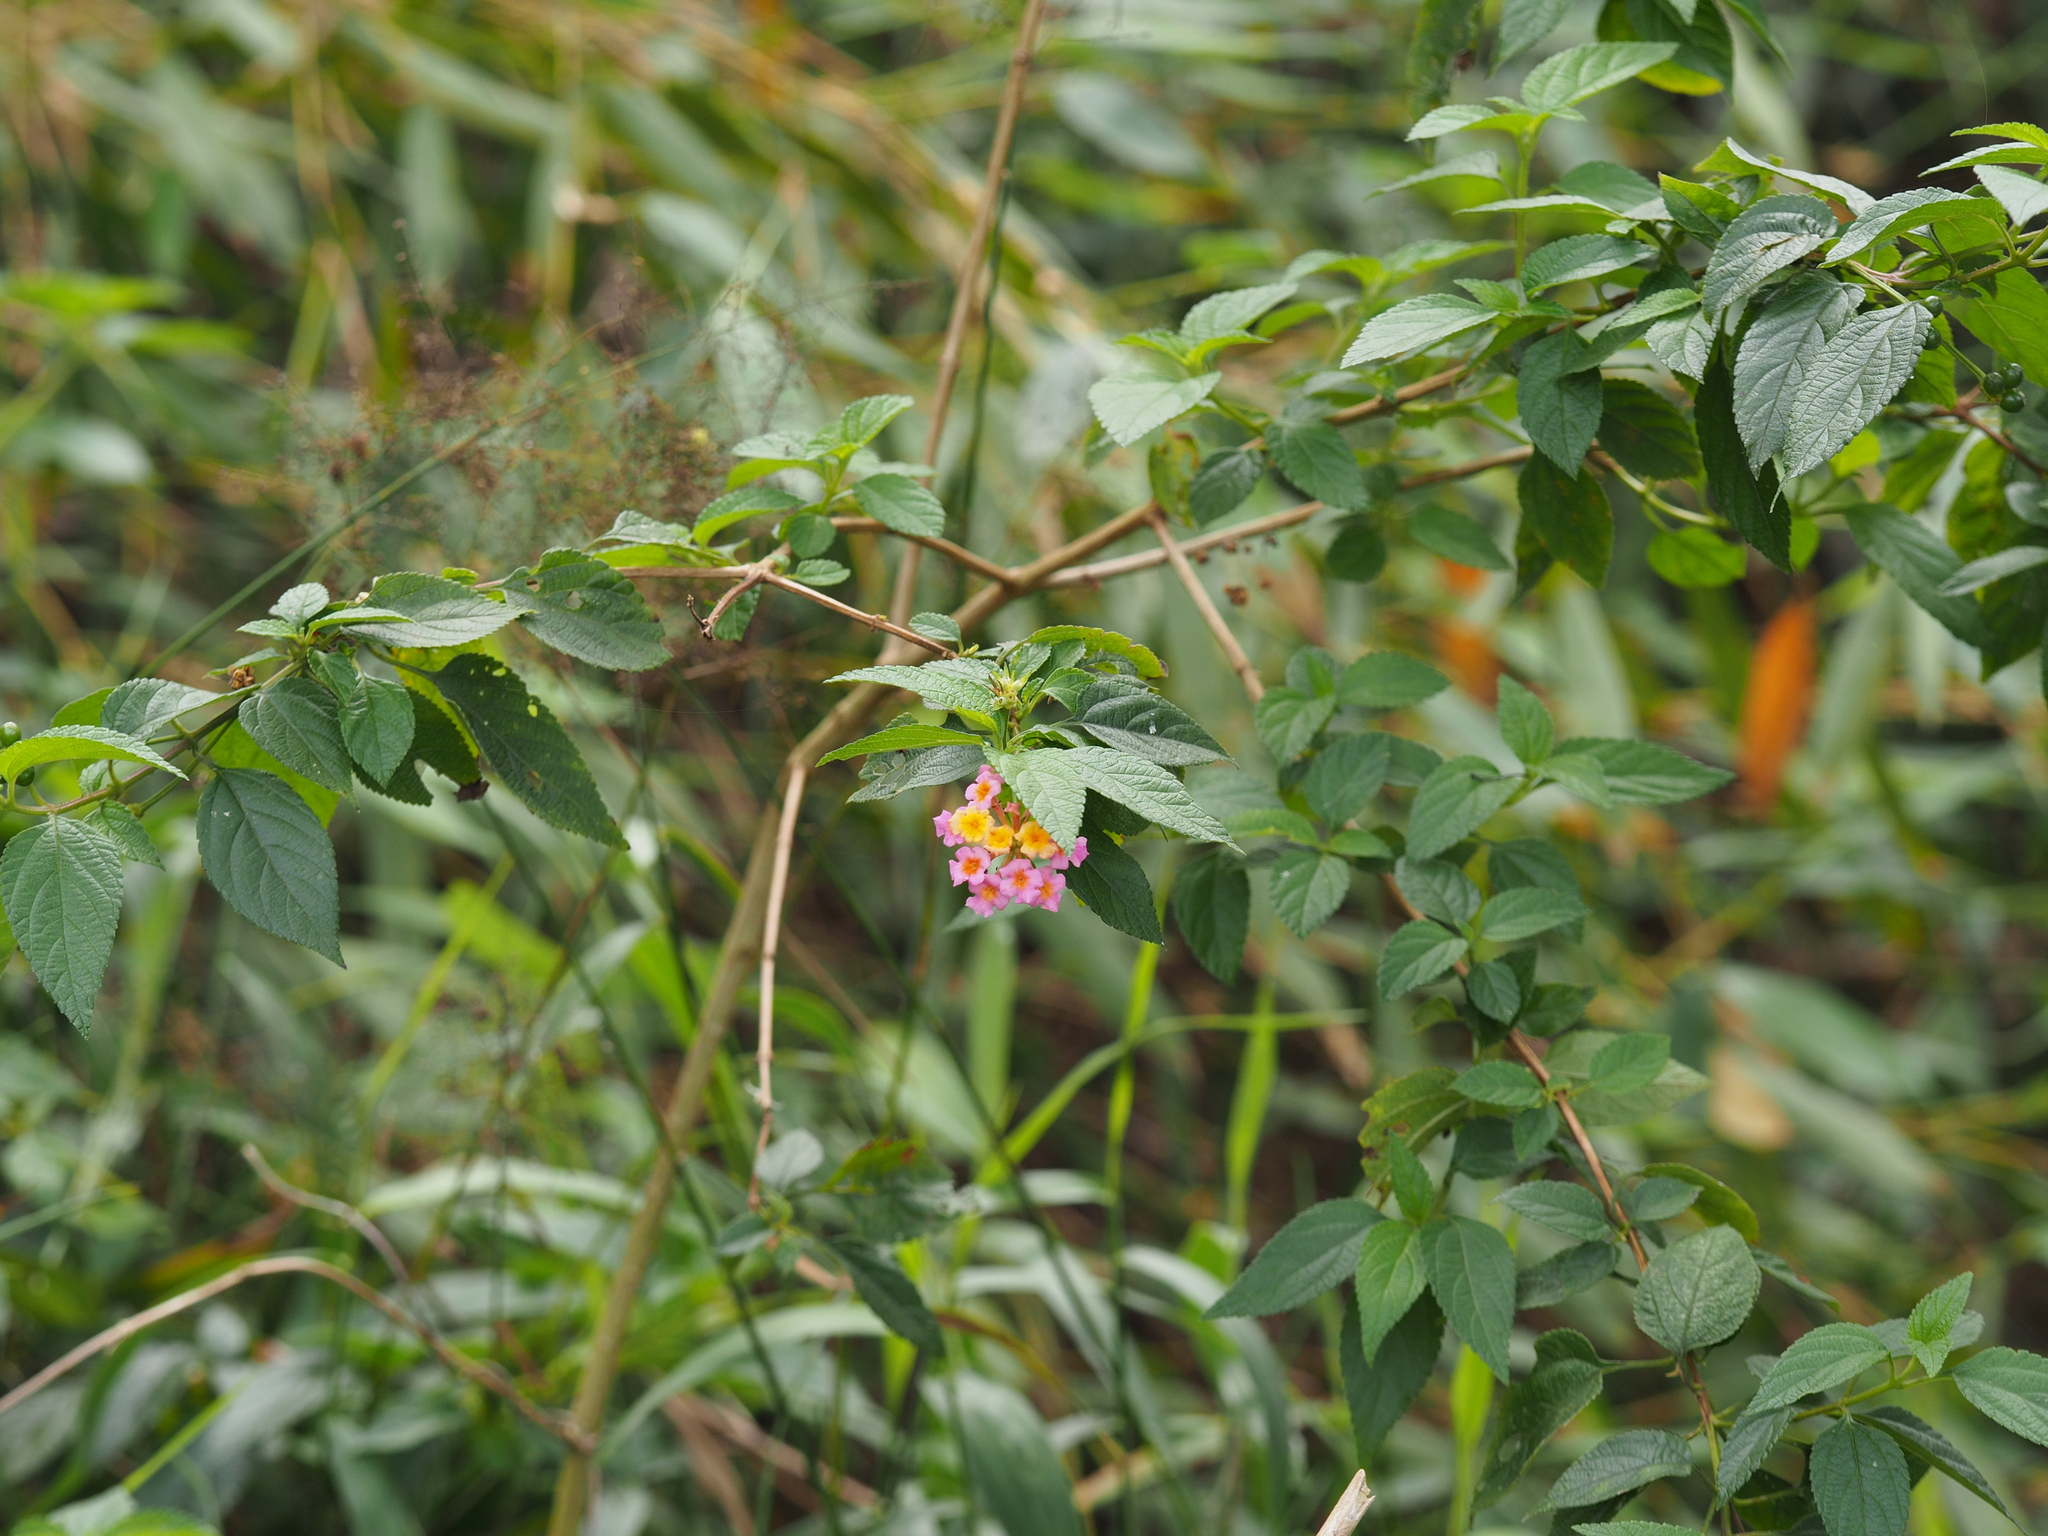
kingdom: Plantae
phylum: Tracheophyta
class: Magnoliopsida
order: Lamiales
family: Verbenaceae
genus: Lantana
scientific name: Lantana camara
